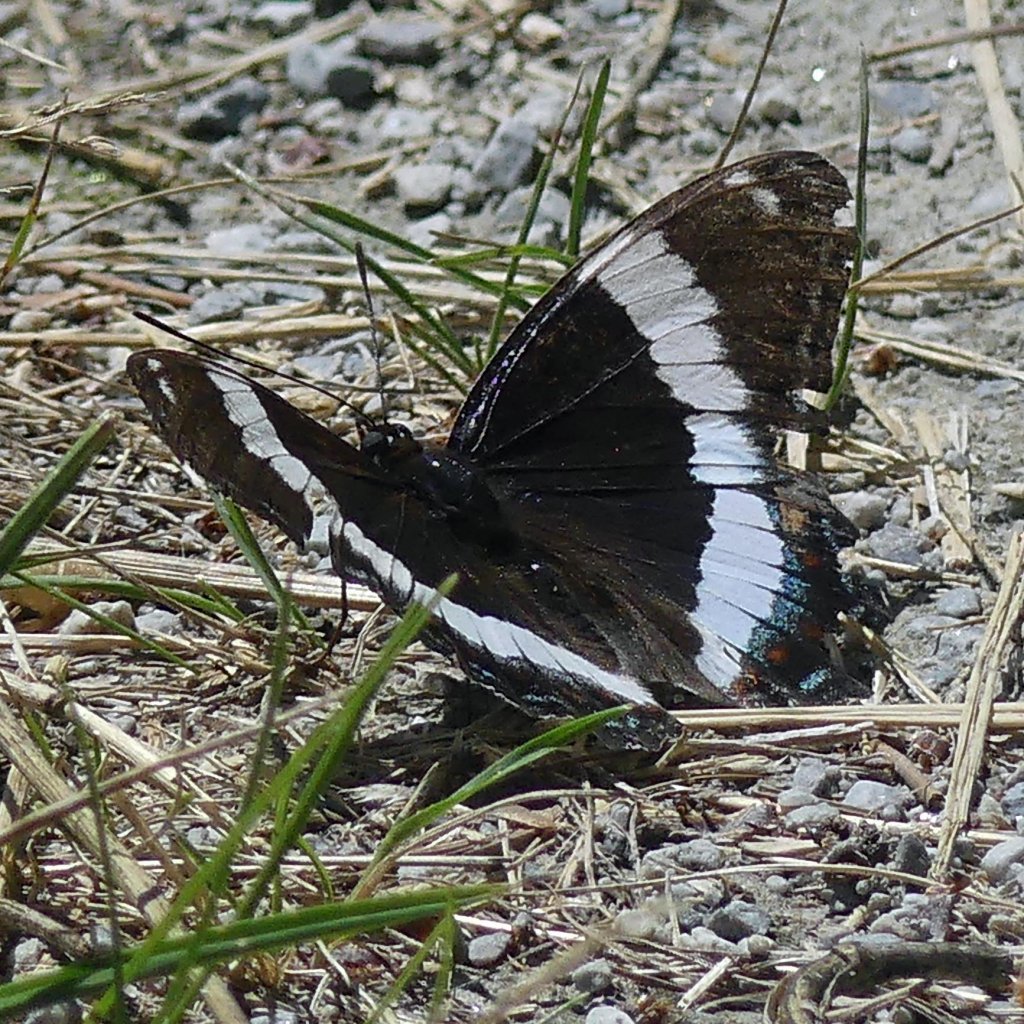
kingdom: Animalia
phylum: Arthropoda
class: Insecta
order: Lepidoptera
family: Nymphalidae
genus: Limenitis
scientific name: Limenitis arthemis
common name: Red-spotted Admiral
